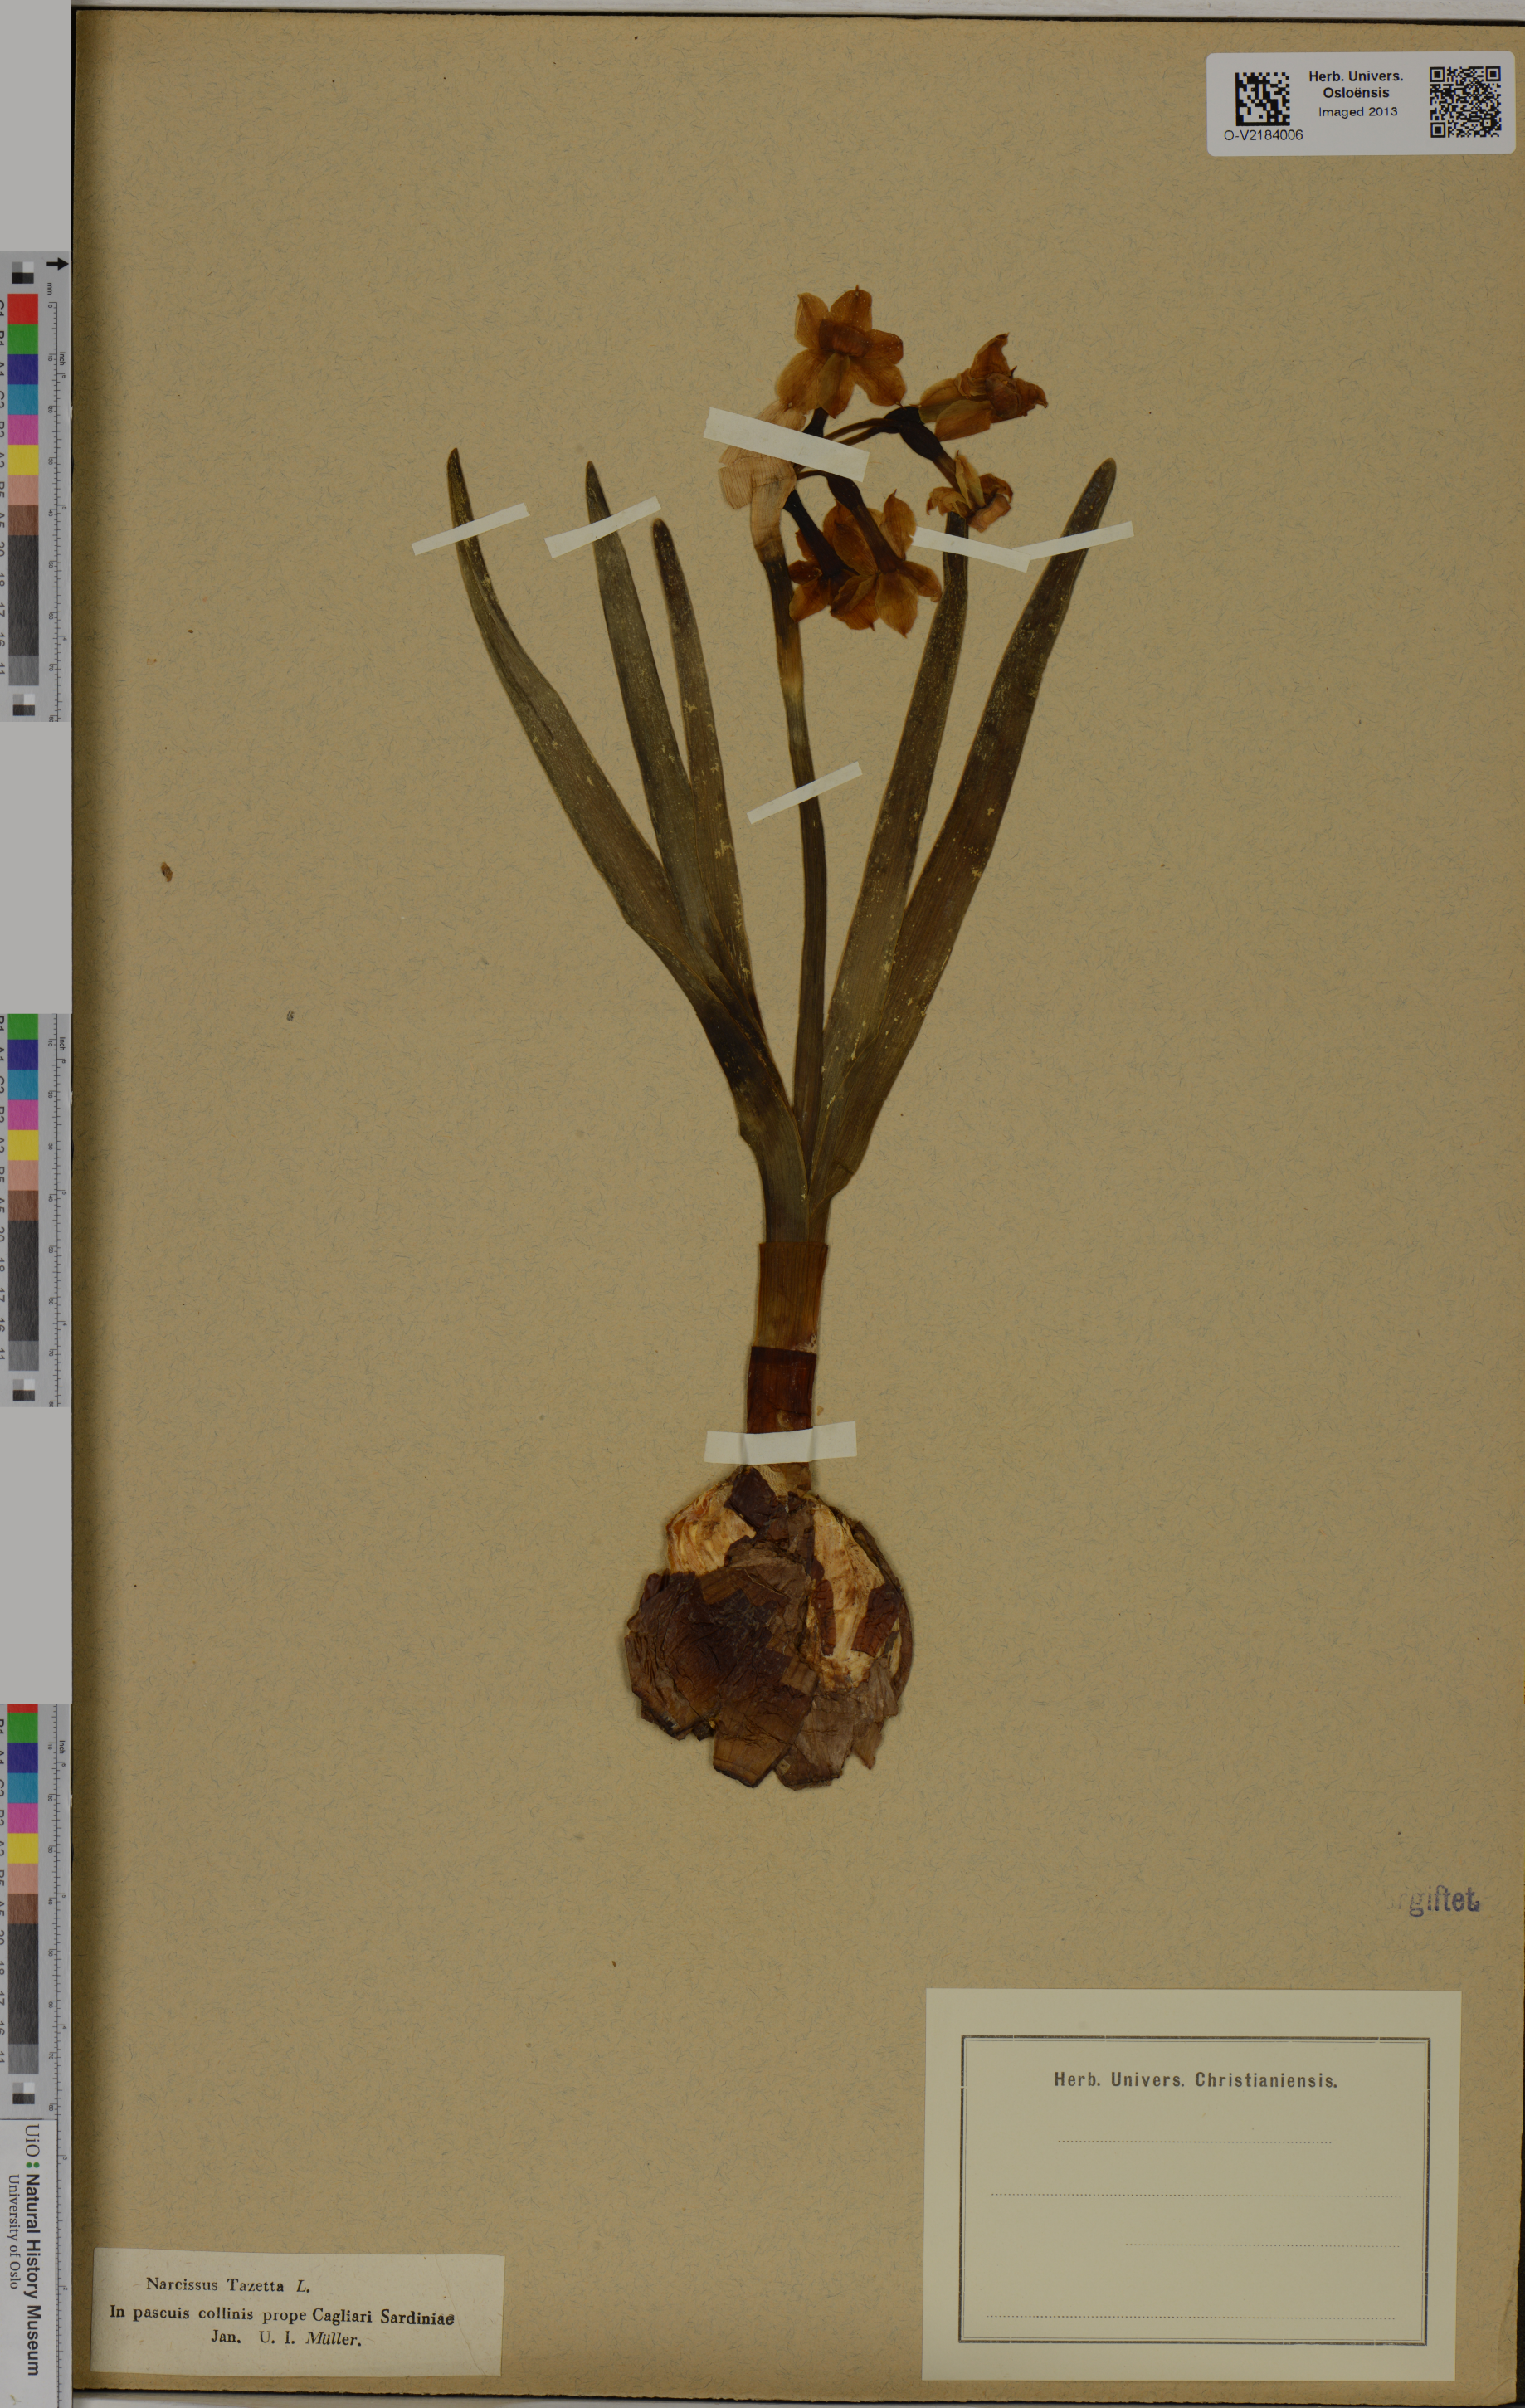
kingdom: Plantae
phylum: Tracheophyta
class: Liliopsida
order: Asparagales
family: Amaryllidaceae
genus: Narcissus
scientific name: Narcissus tazetta
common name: Bunch-flowered daffodil
